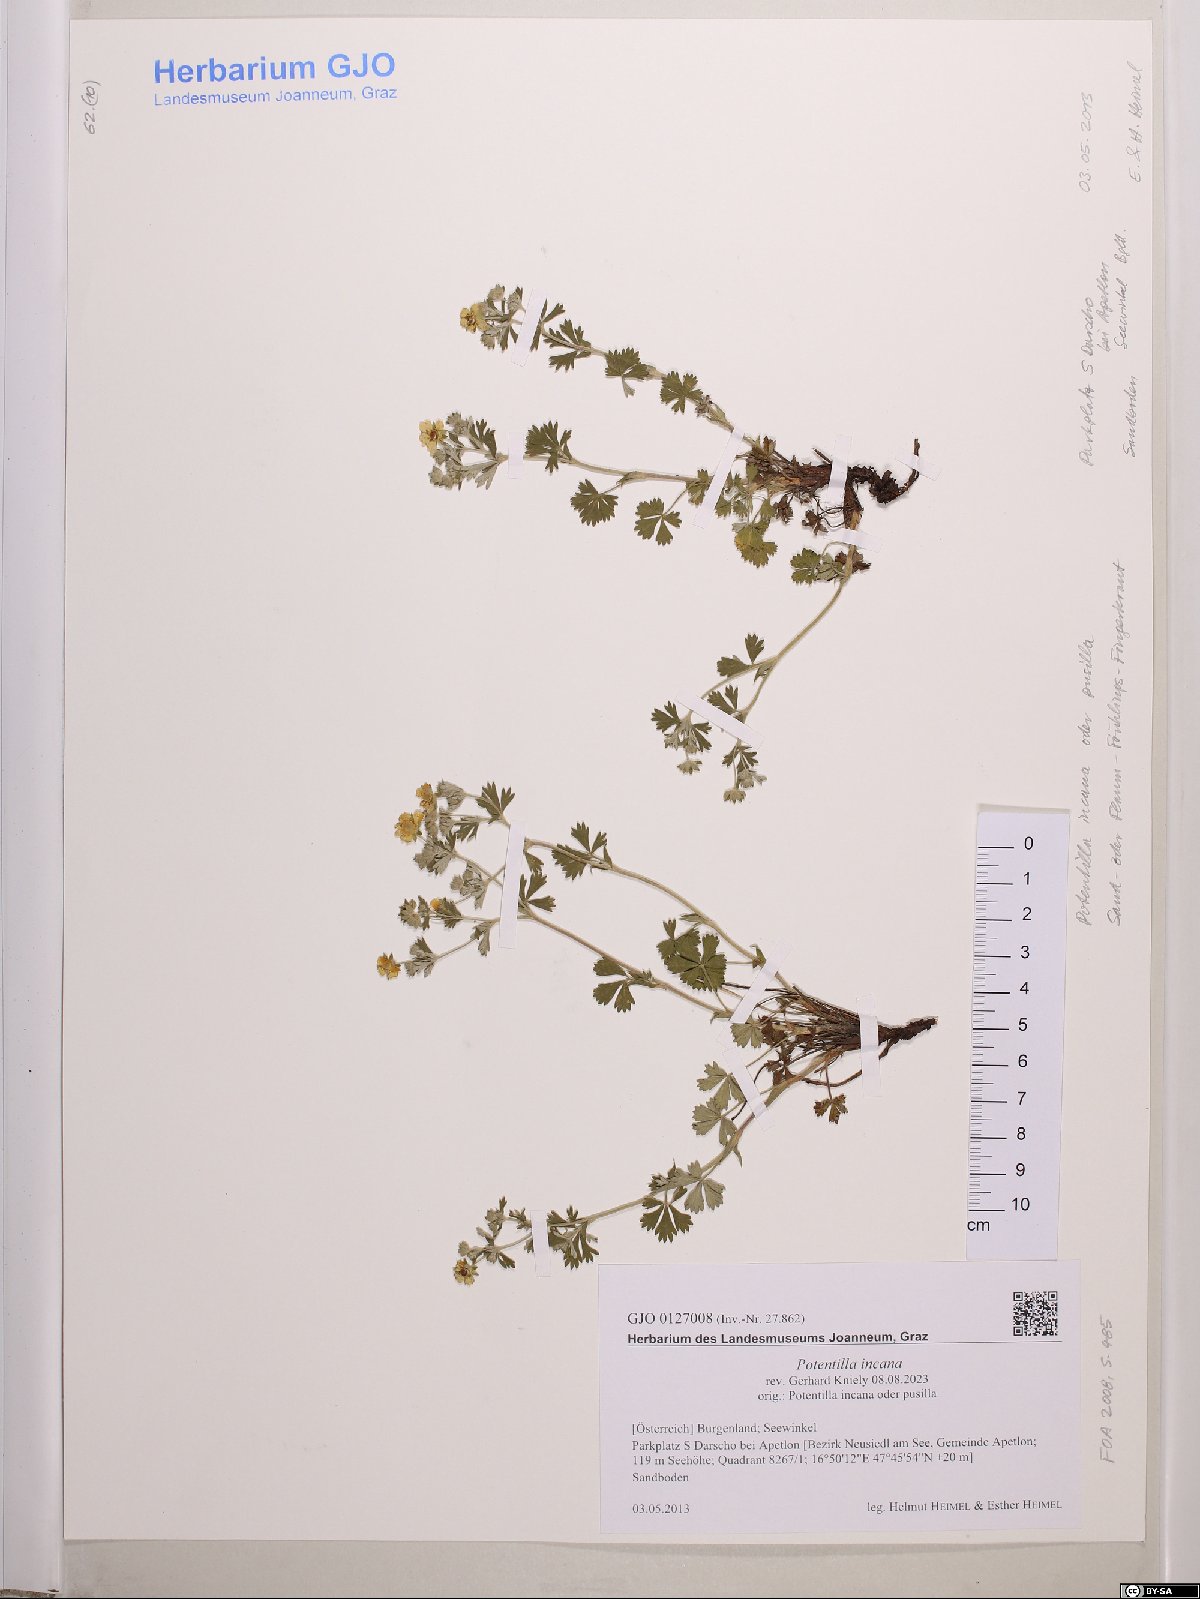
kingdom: Plantae
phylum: Tracheophyta
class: Magnoliopsida
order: Rosales
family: Rosaceae
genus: Potentilla
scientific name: Potentilla cinerea
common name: Ashy cinquefoil
